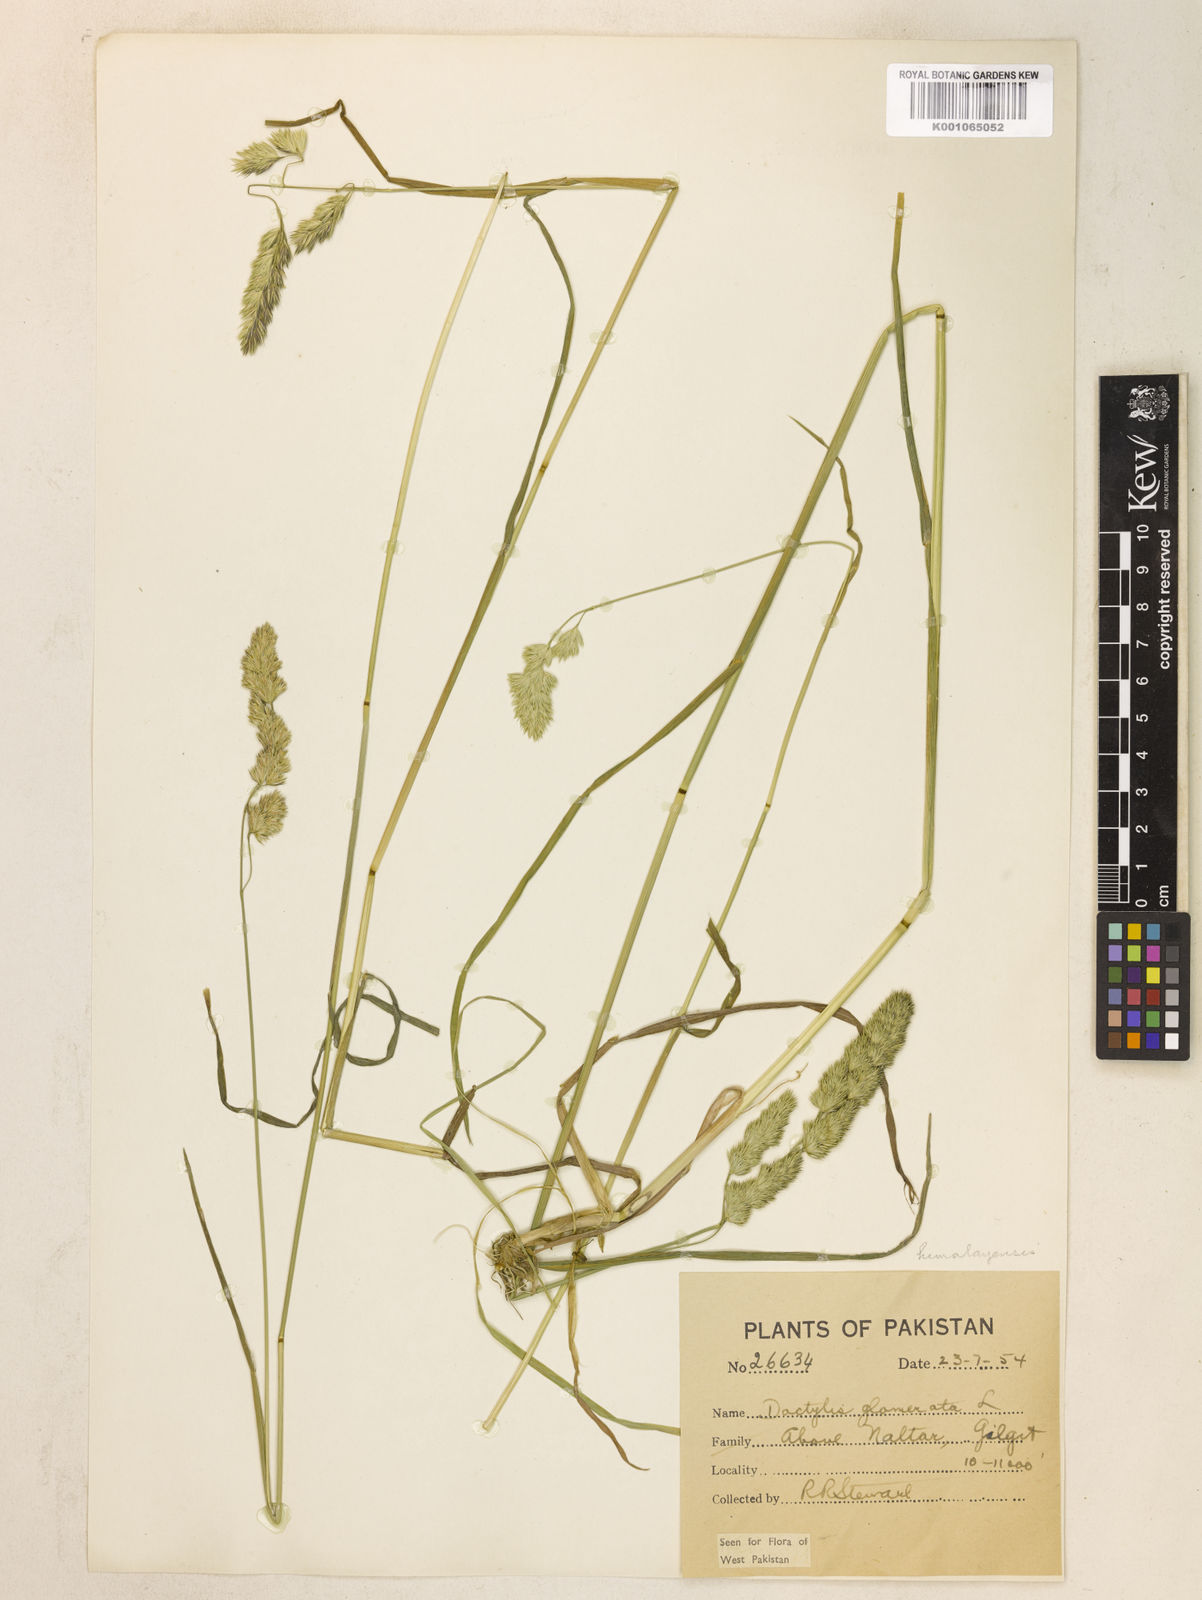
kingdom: Plantae
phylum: Tracheophyta
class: Liliopsida
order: Poales
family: Poaceae
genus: Dactylis
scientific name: Dactylis glomerata
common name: Orchardgrass
